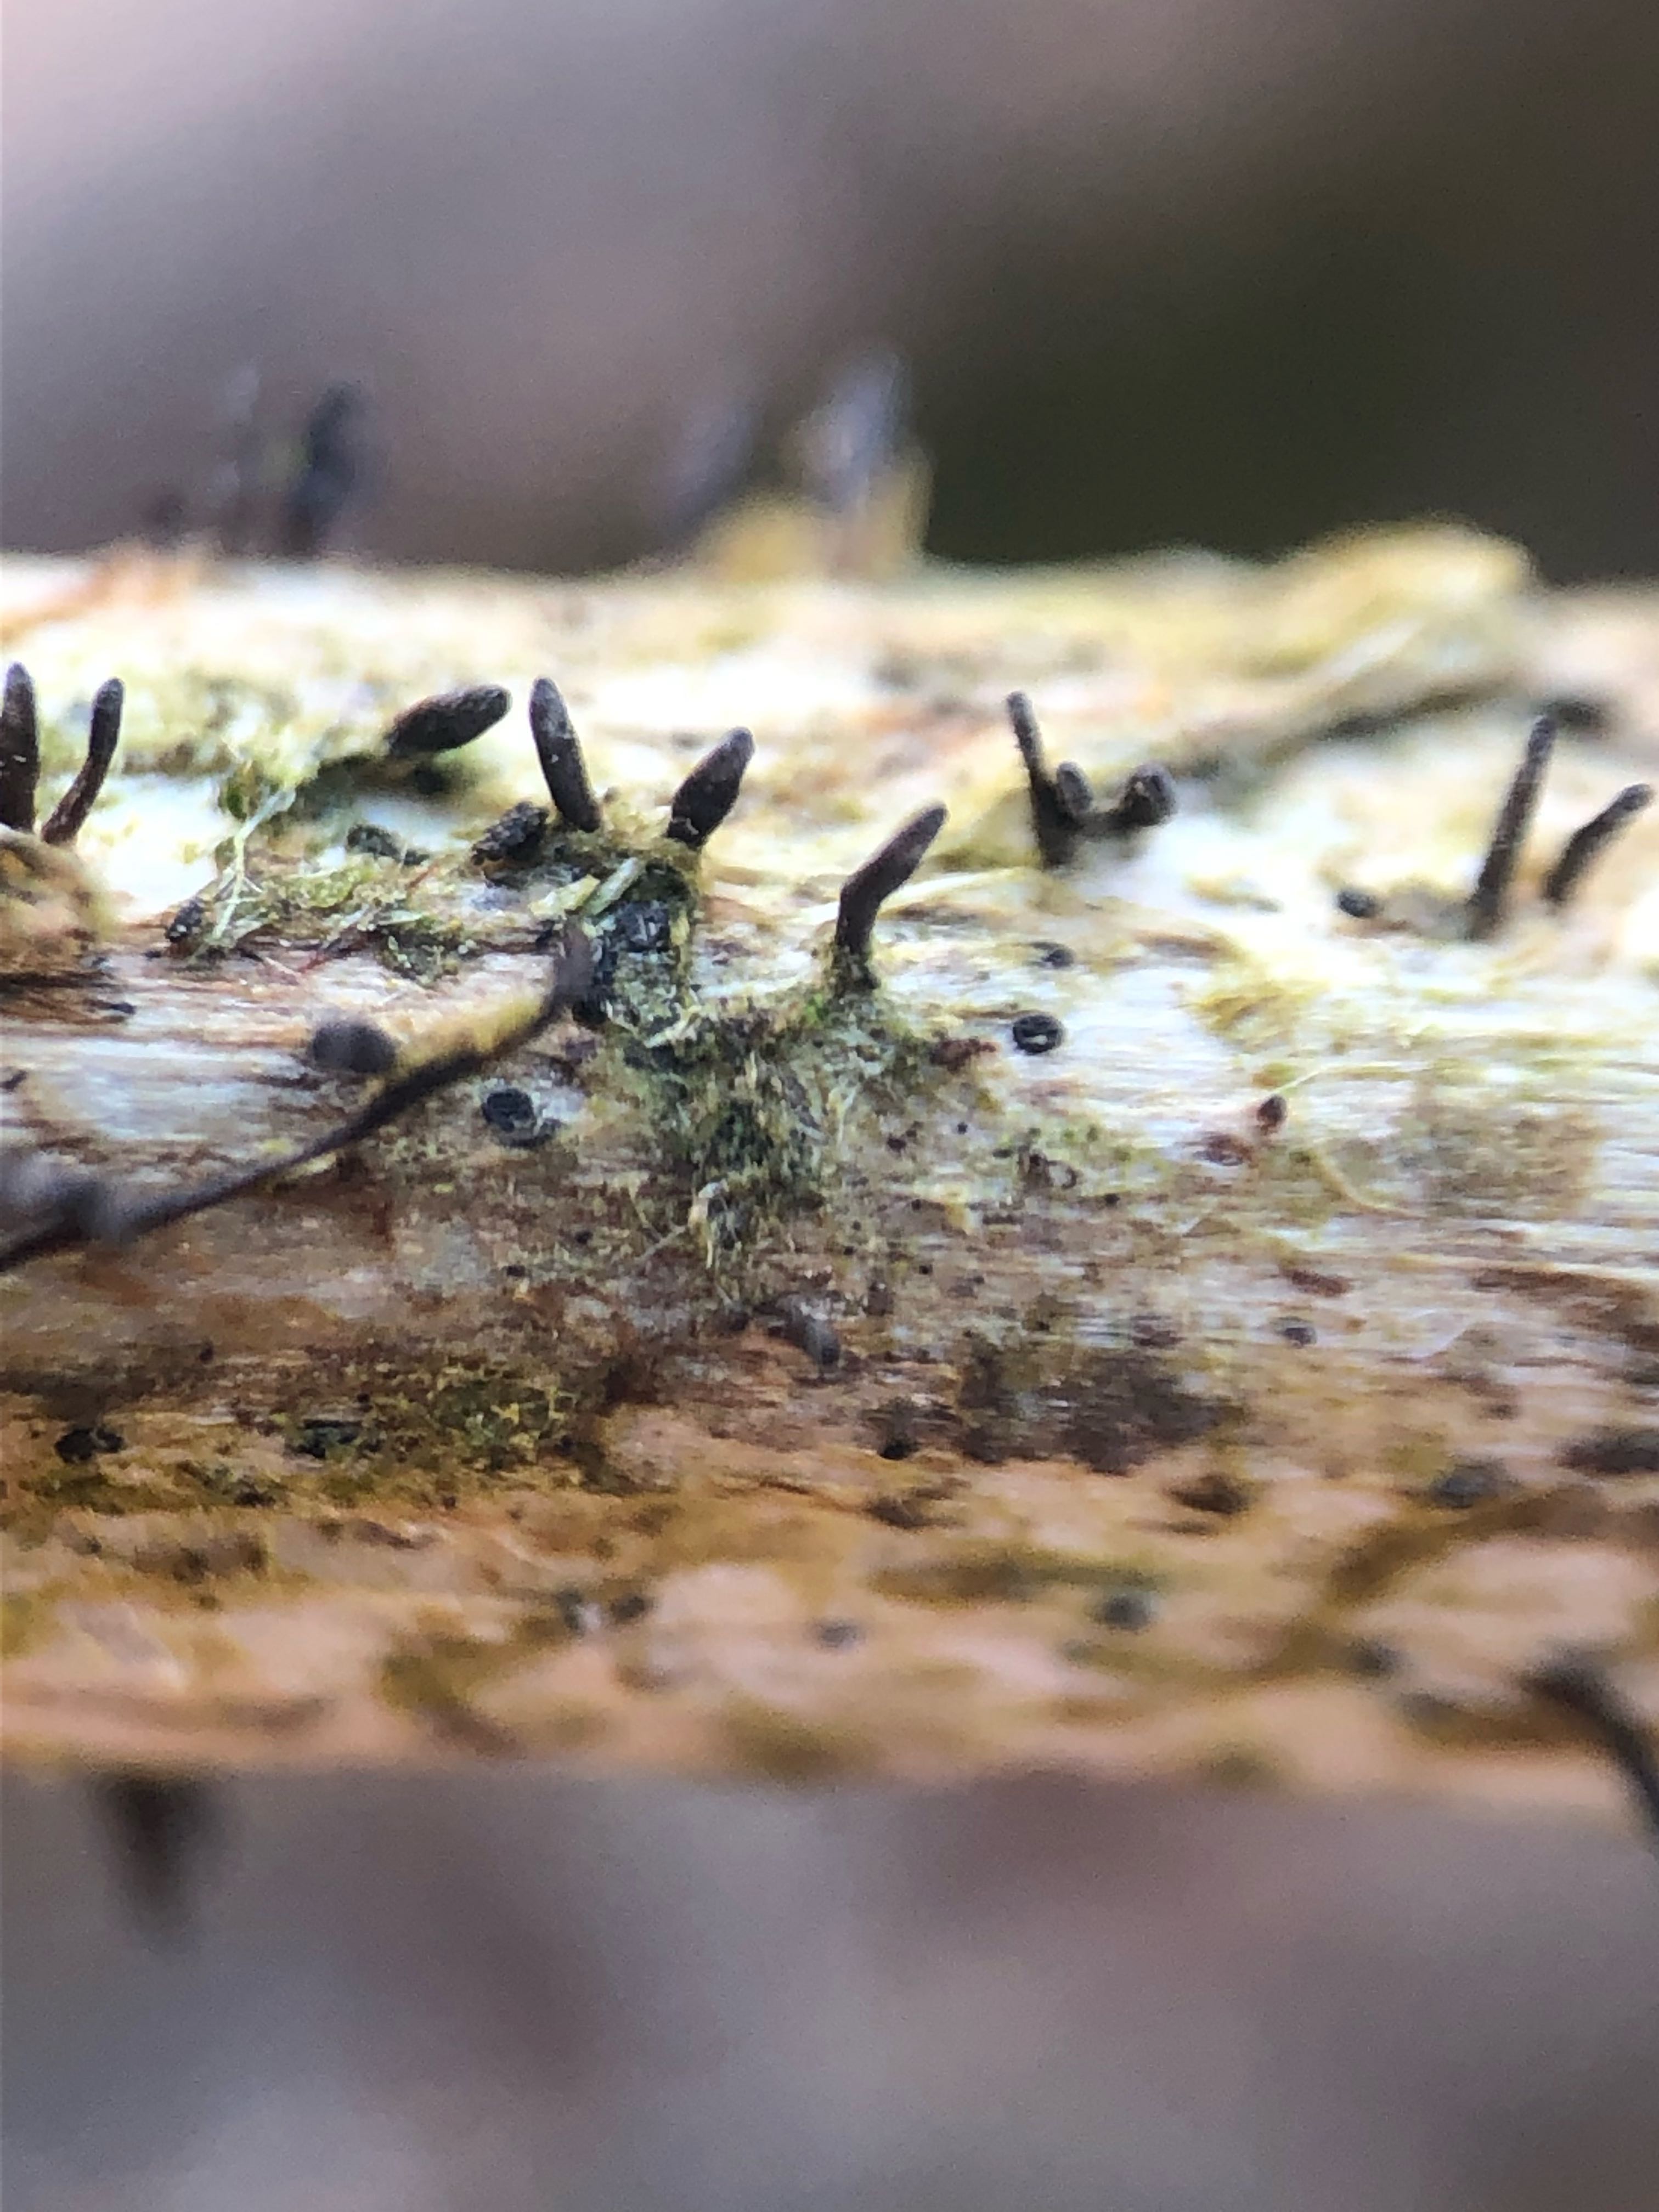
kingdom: Fungi
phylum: Ascomycota
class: Dothideomycetes
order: Acrospermales
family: Acrospermaceae
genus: Acrospermum
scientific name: Acrospermum compressum
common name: nælde-stængeltunge
